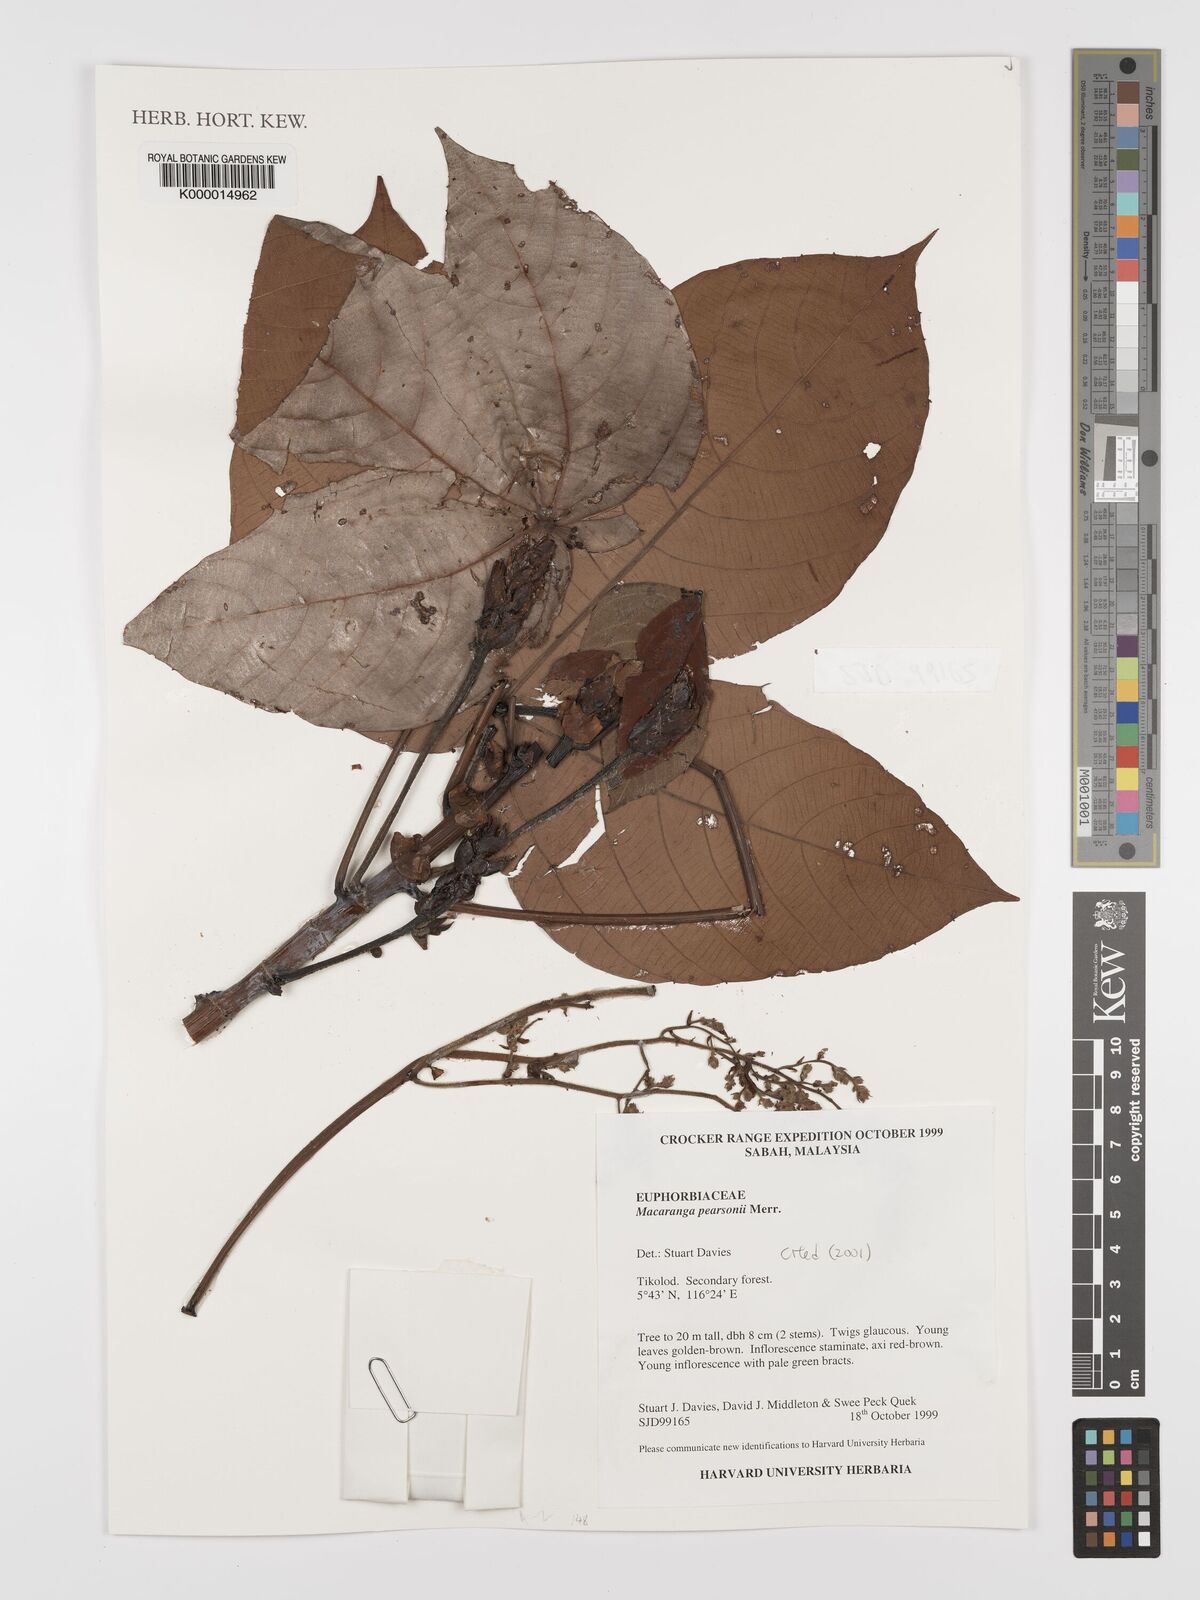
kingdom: Plantae
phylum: Tracheophyta
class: Magnoliopsida
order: Malpighiales
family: Euphorbiaceae
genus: Macaranga
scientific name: Macaranga pearsonii
